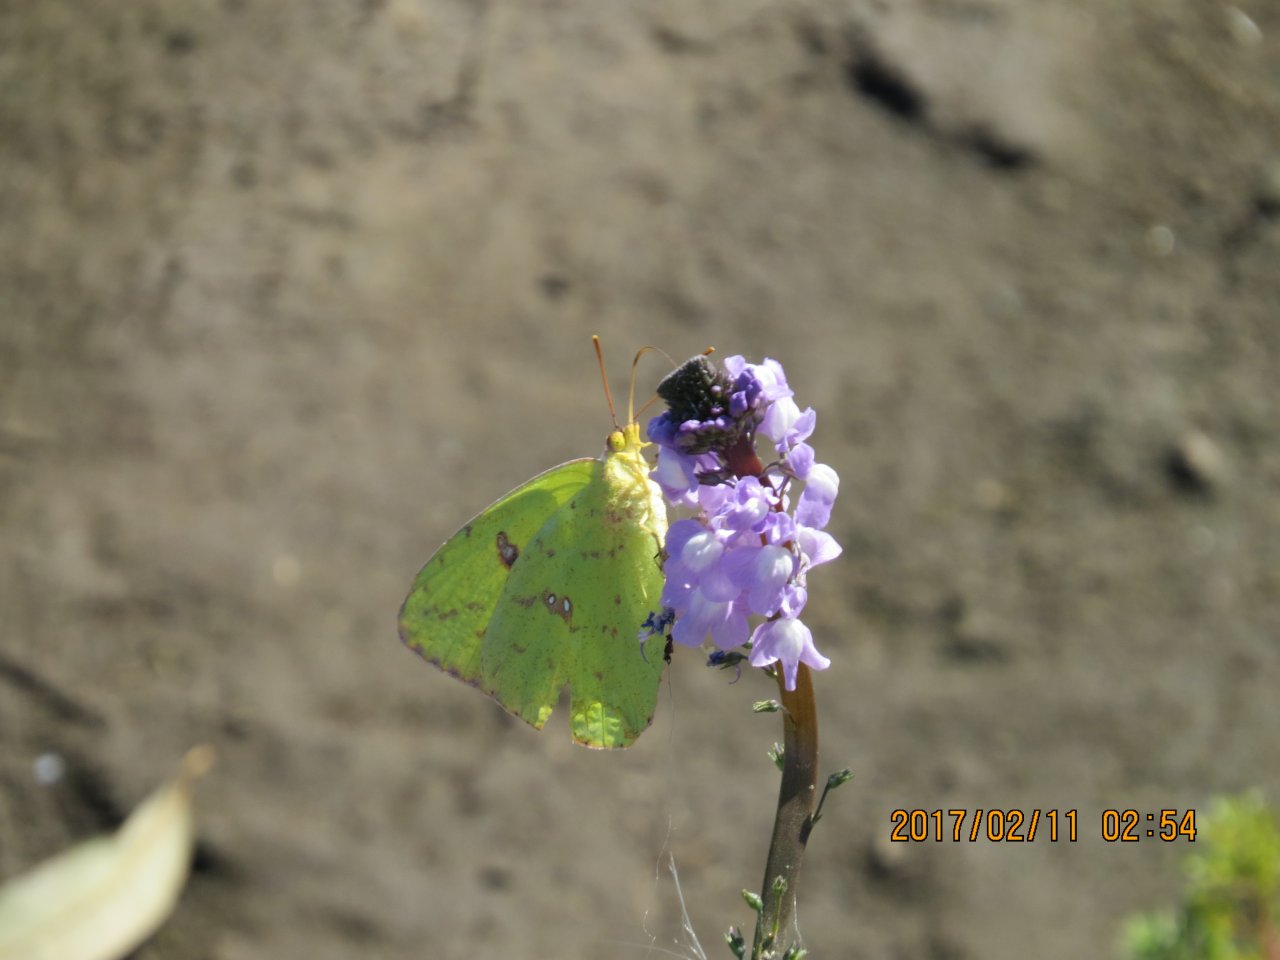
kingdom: Animalia
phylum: Arthropoda
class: Insecta
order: Lepidoptera
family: Pieridae
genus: Phoebis
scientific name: Phoebis sennae
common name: Cloudless Sulphur
